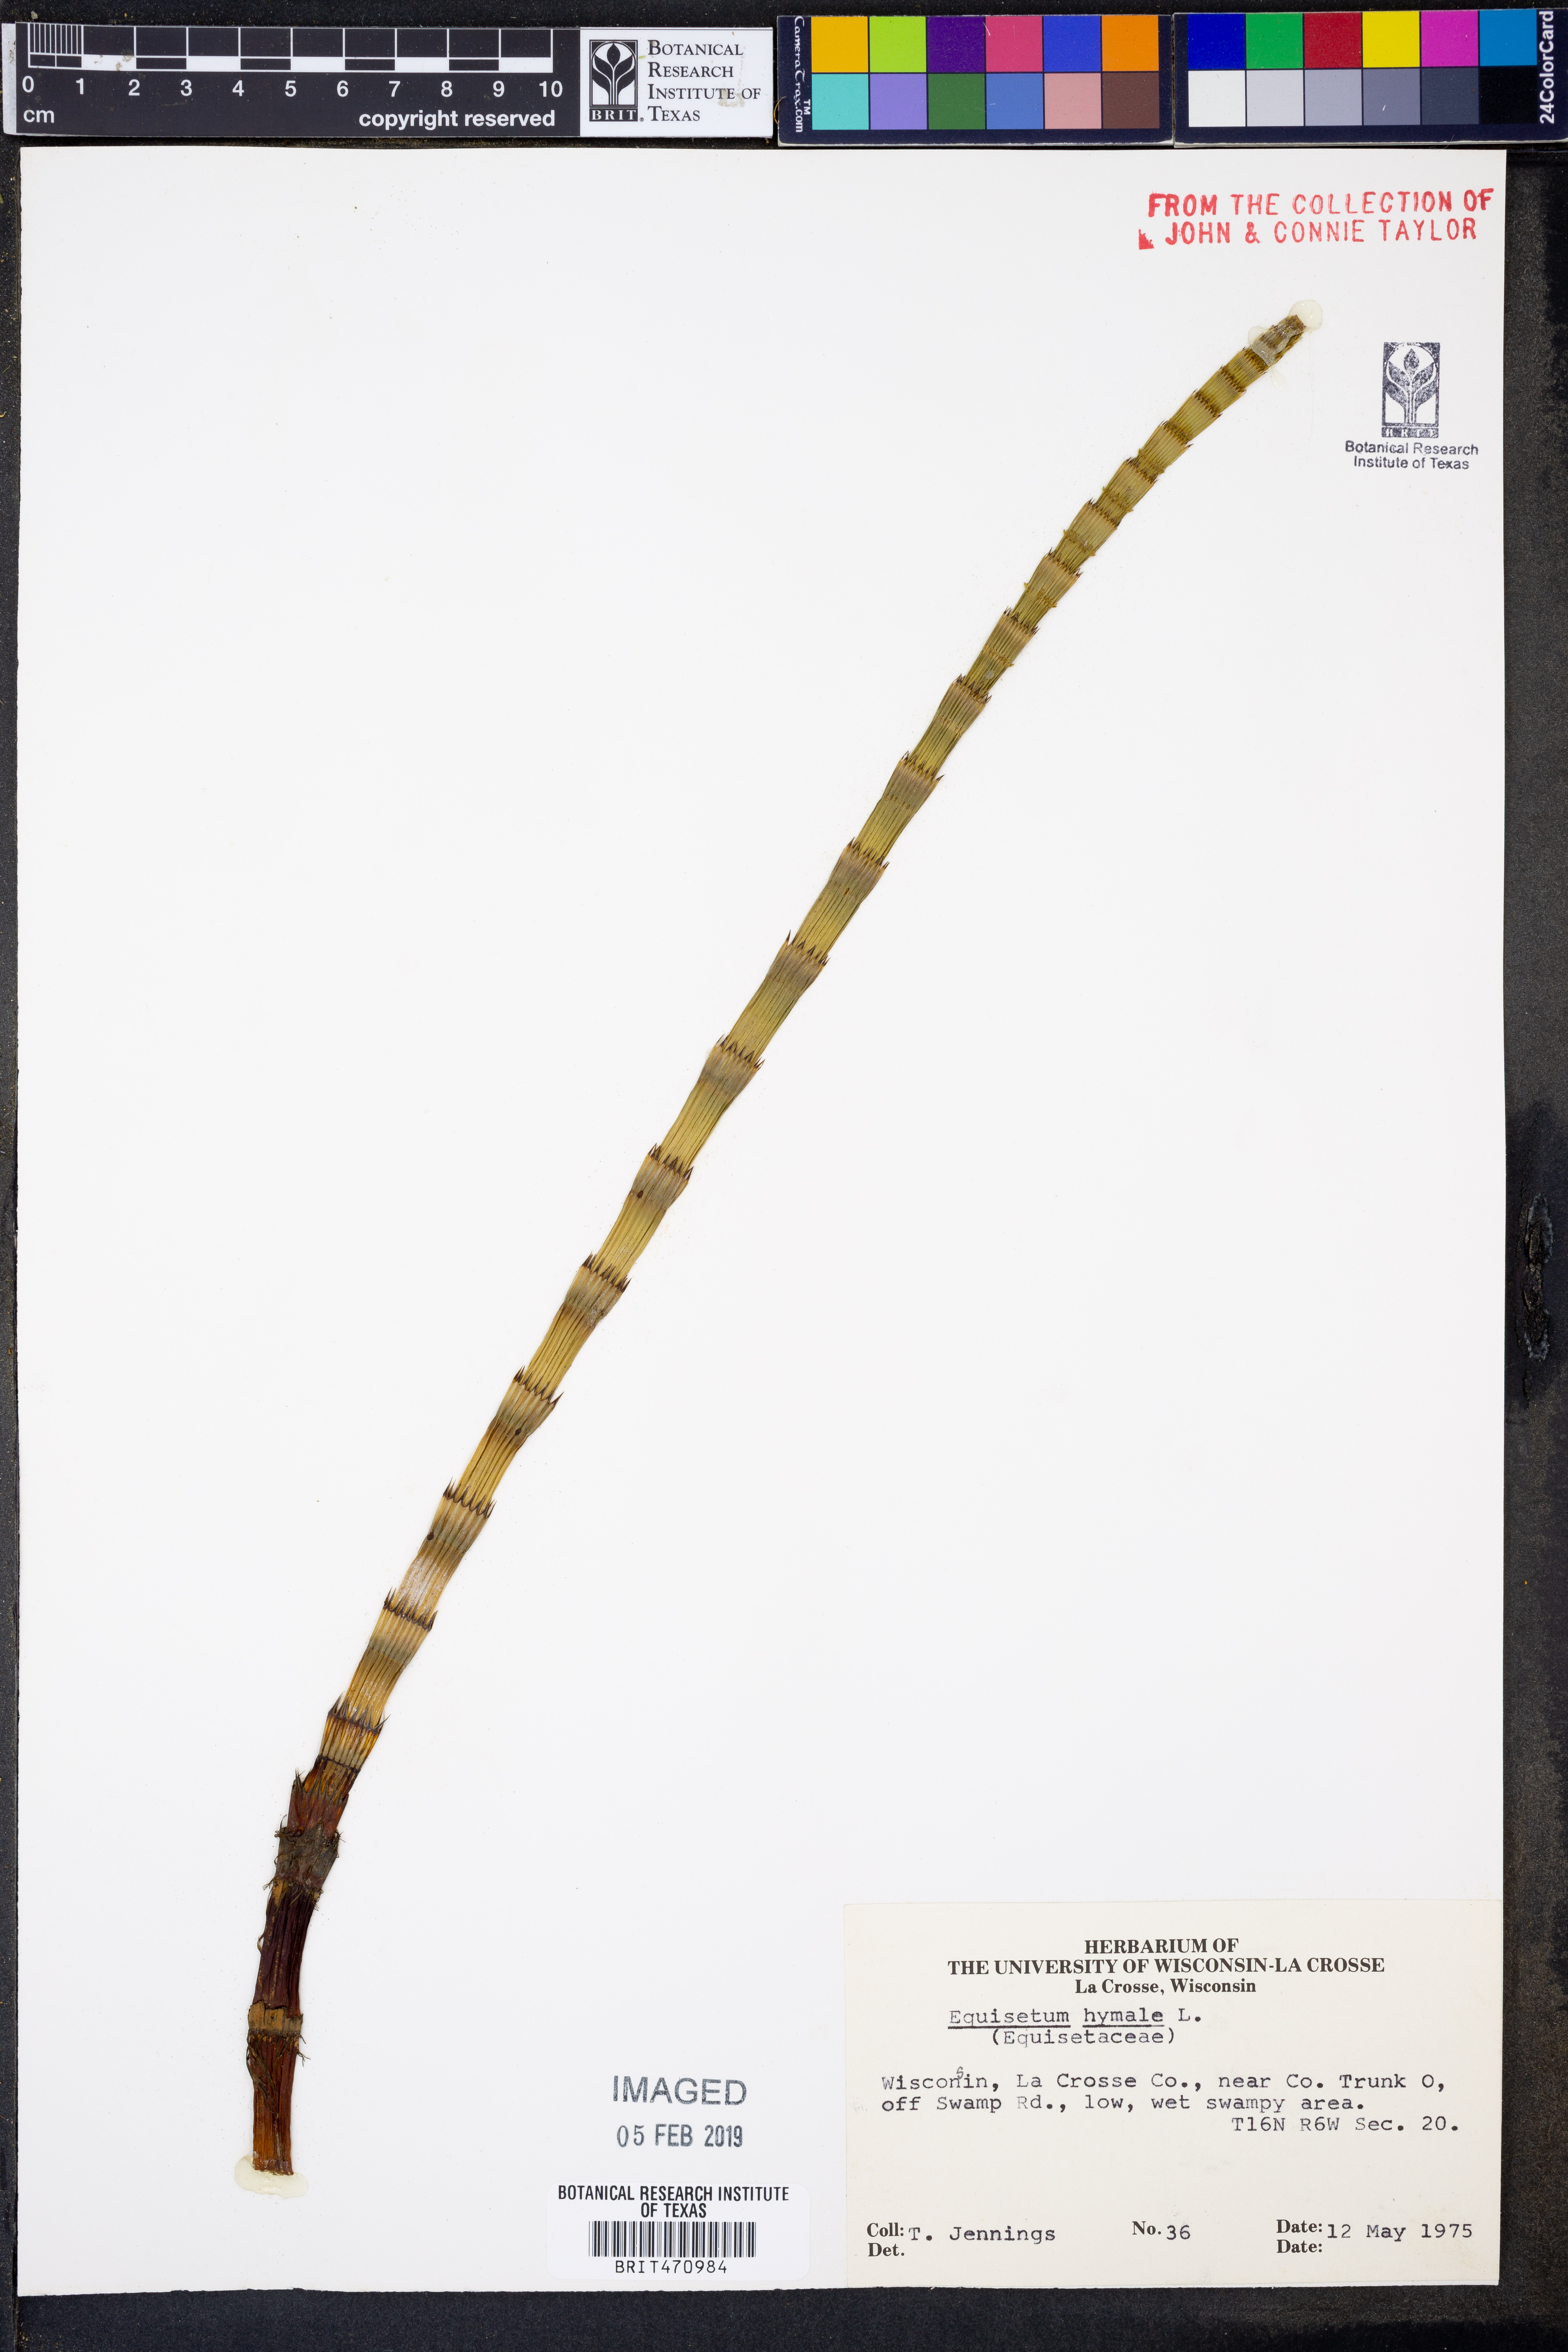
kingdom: Plantae
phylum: Tracheophyta
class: Polypodiopsida
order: Equisetales
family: Equisetaceae
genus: Equisetum
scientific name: Equisetum hyemale
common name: Rough horsetail
